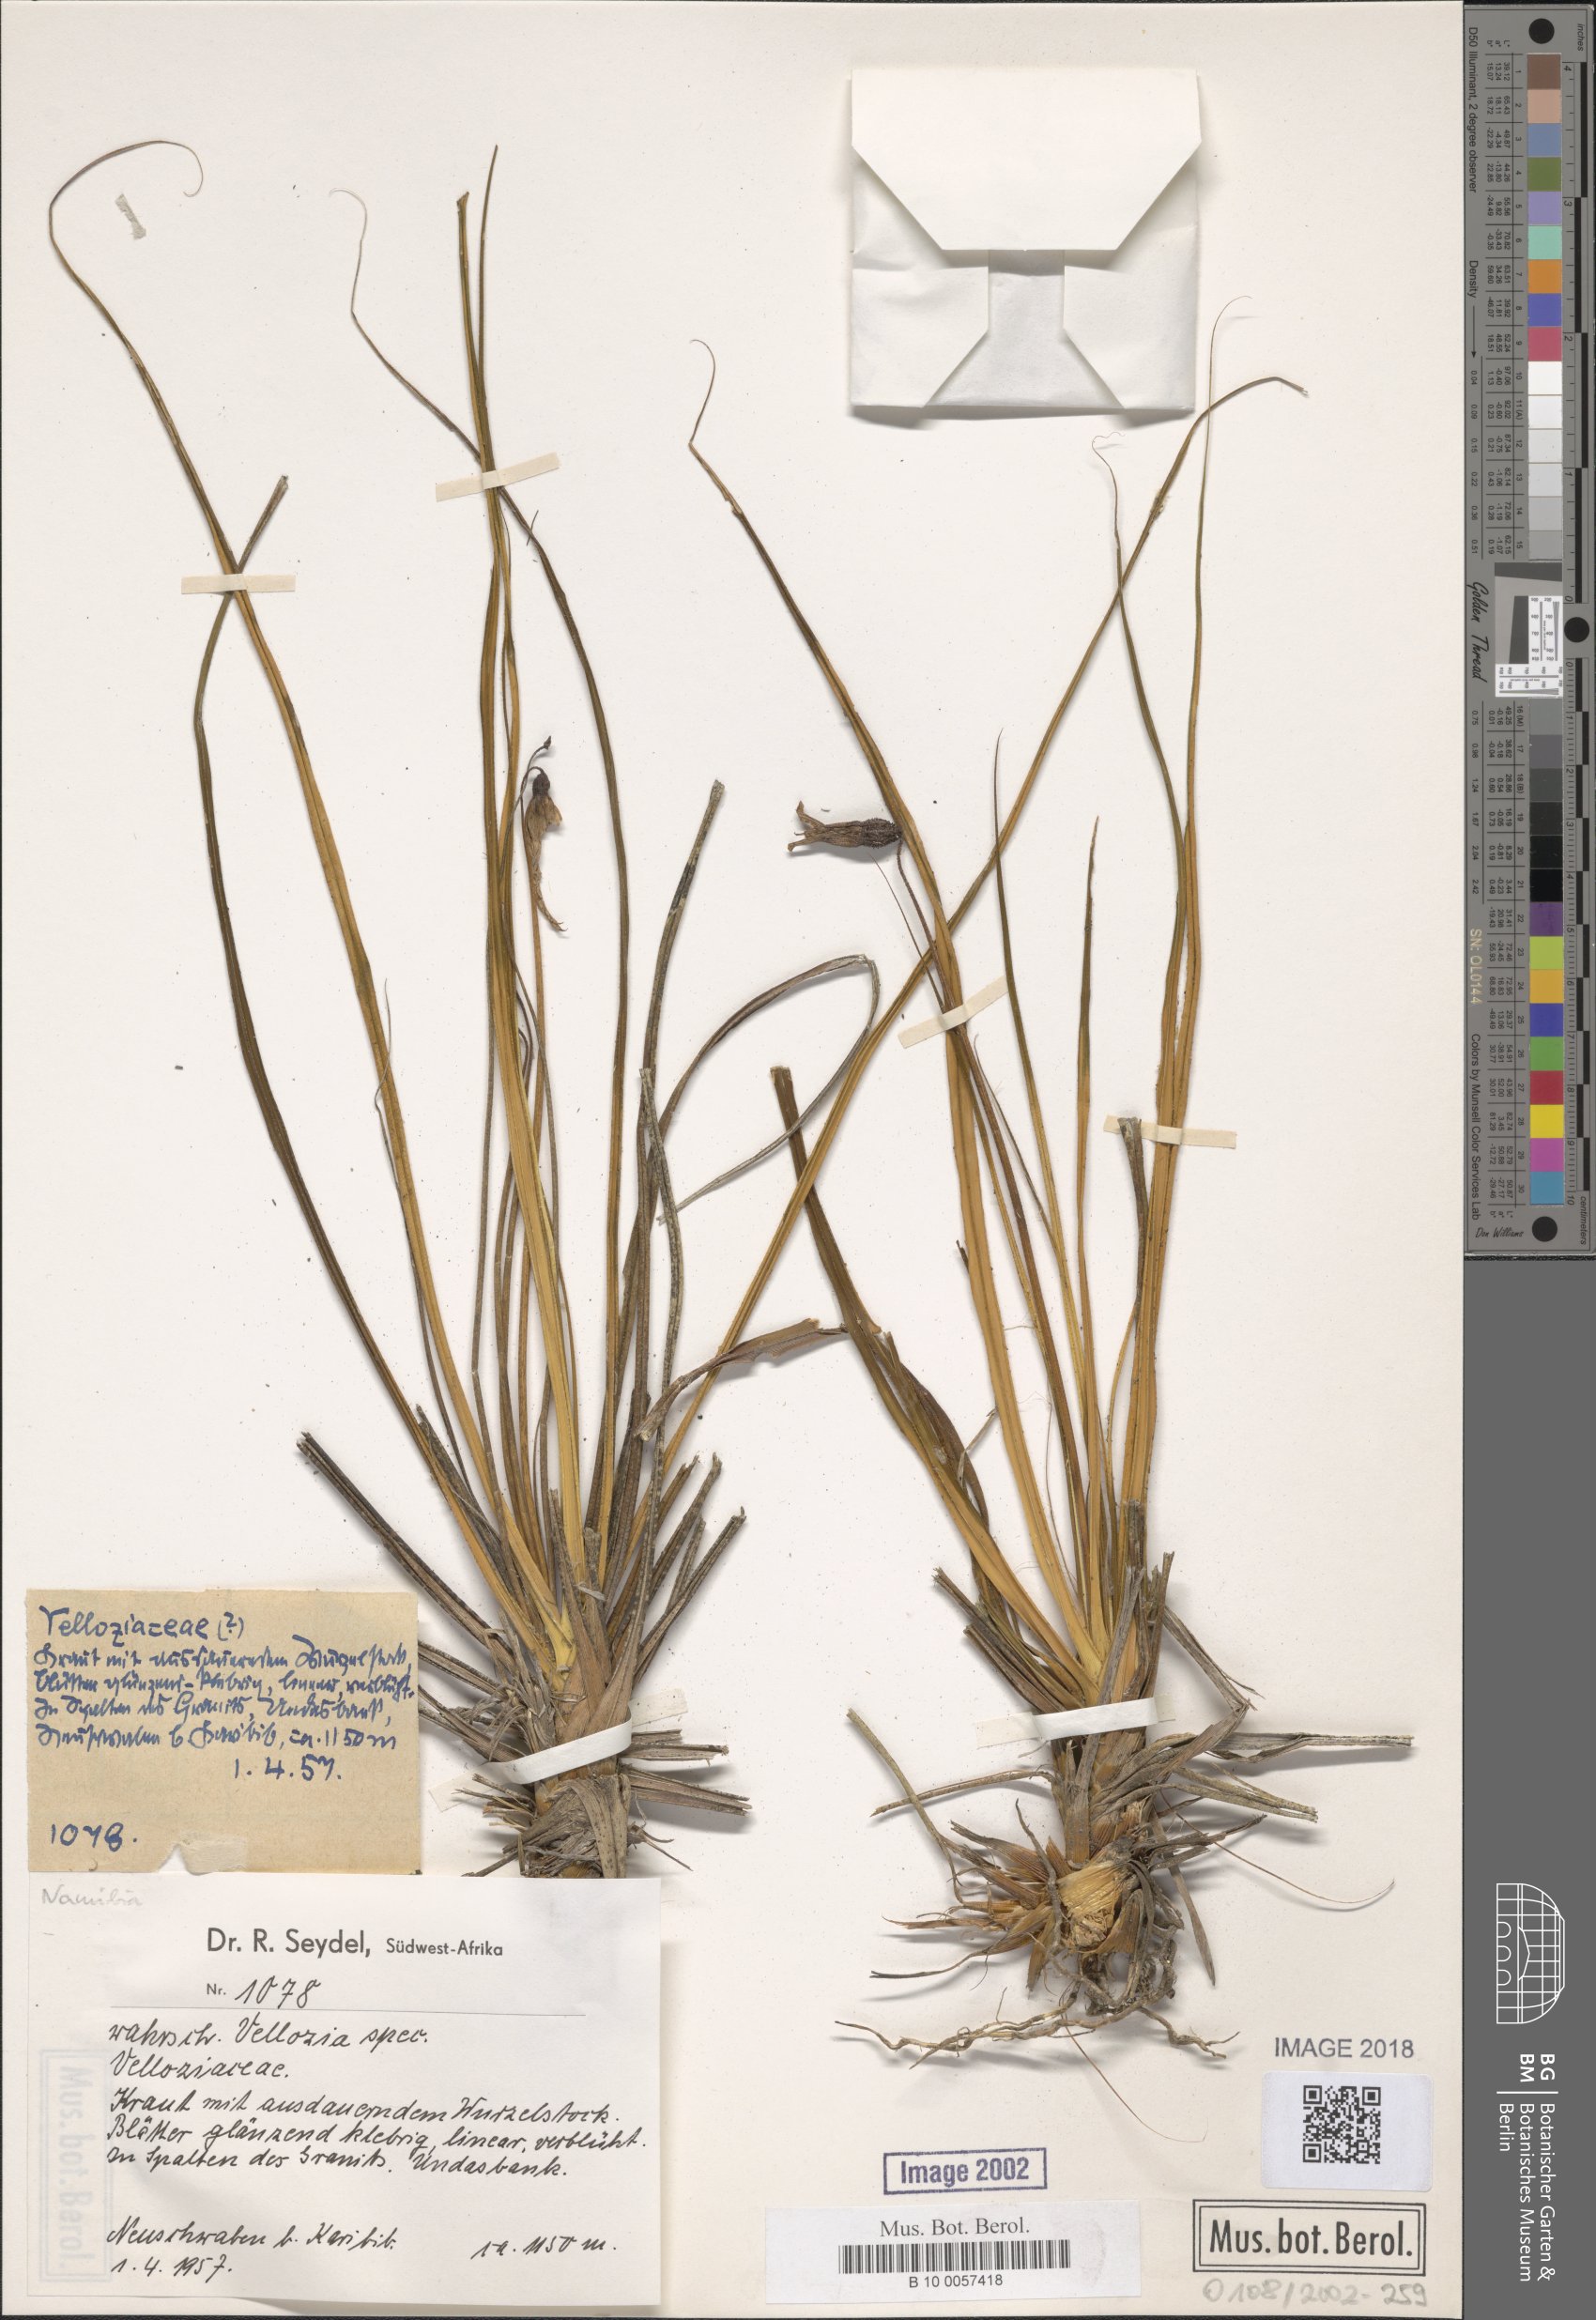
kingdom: Plantae
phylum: Tracheophyta
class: Liliopsida
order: Pandanales
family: Velloziaceae
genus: Xerophyta
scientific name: Xerophyta
